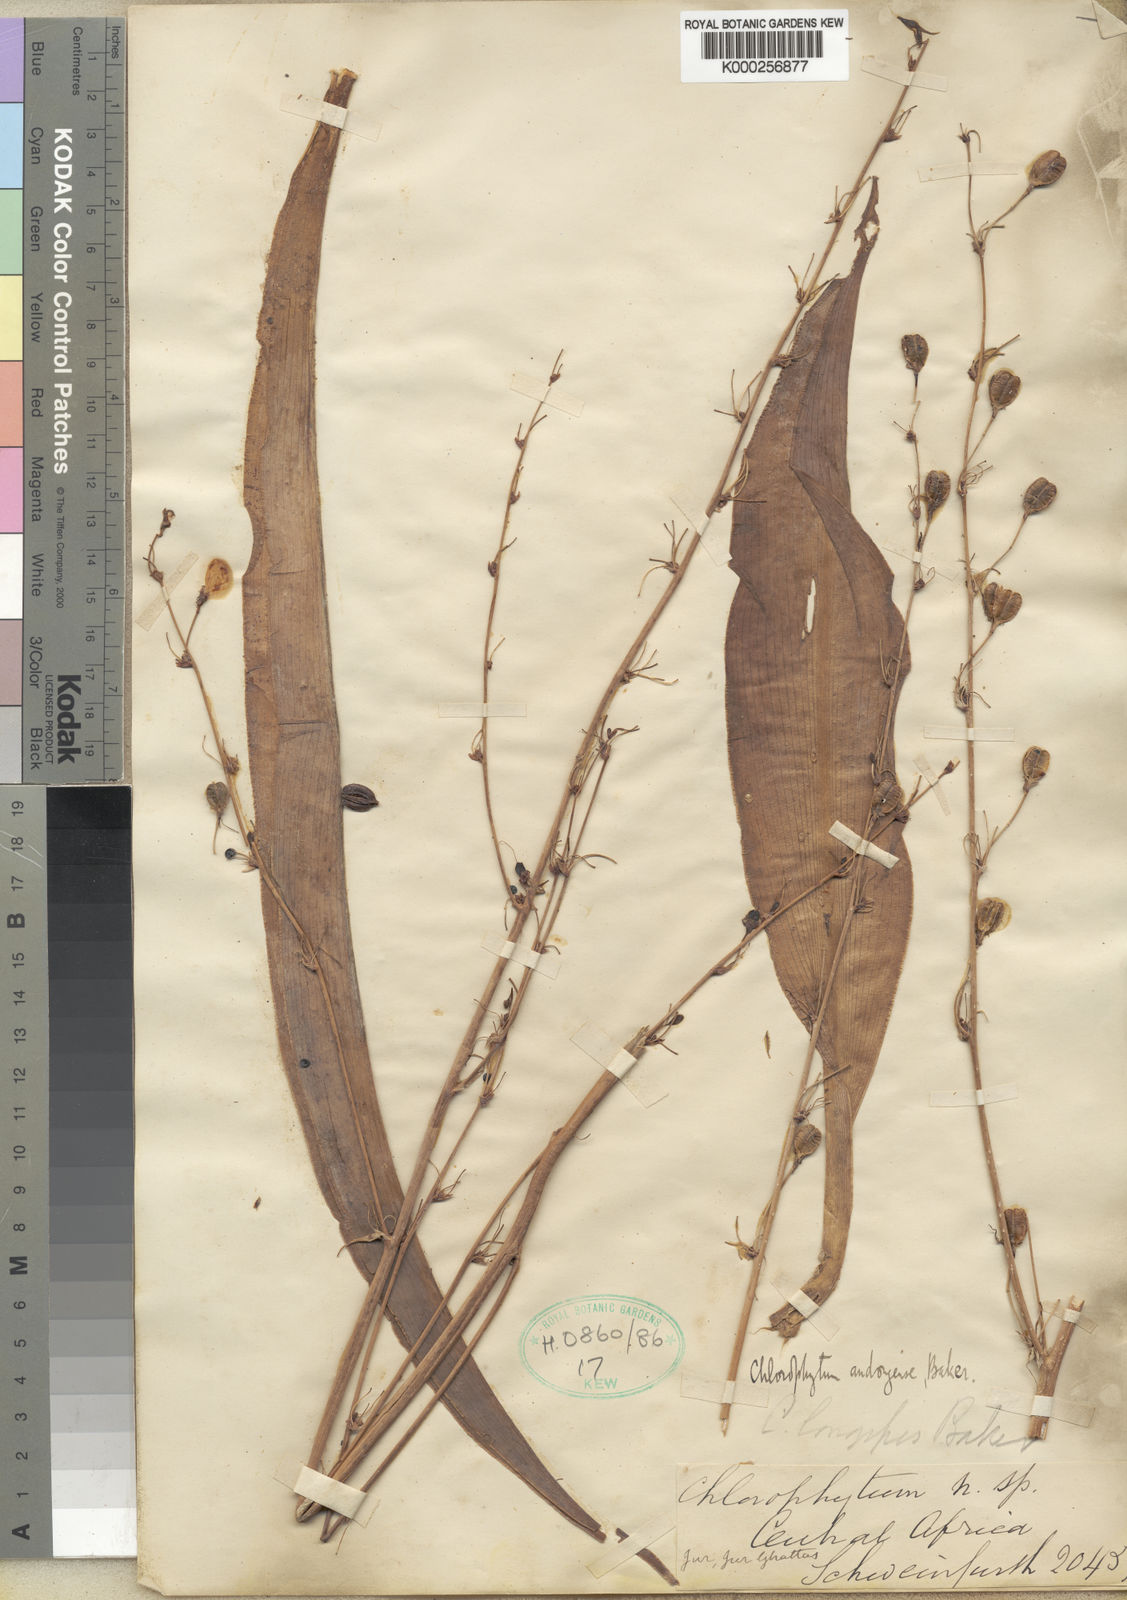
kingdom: Plantae
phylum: Tracheophyta
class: Liliopsida
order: Asparagales
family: Asparagaceae
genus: Chlorophytum
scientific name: Chlorophytum andongense
